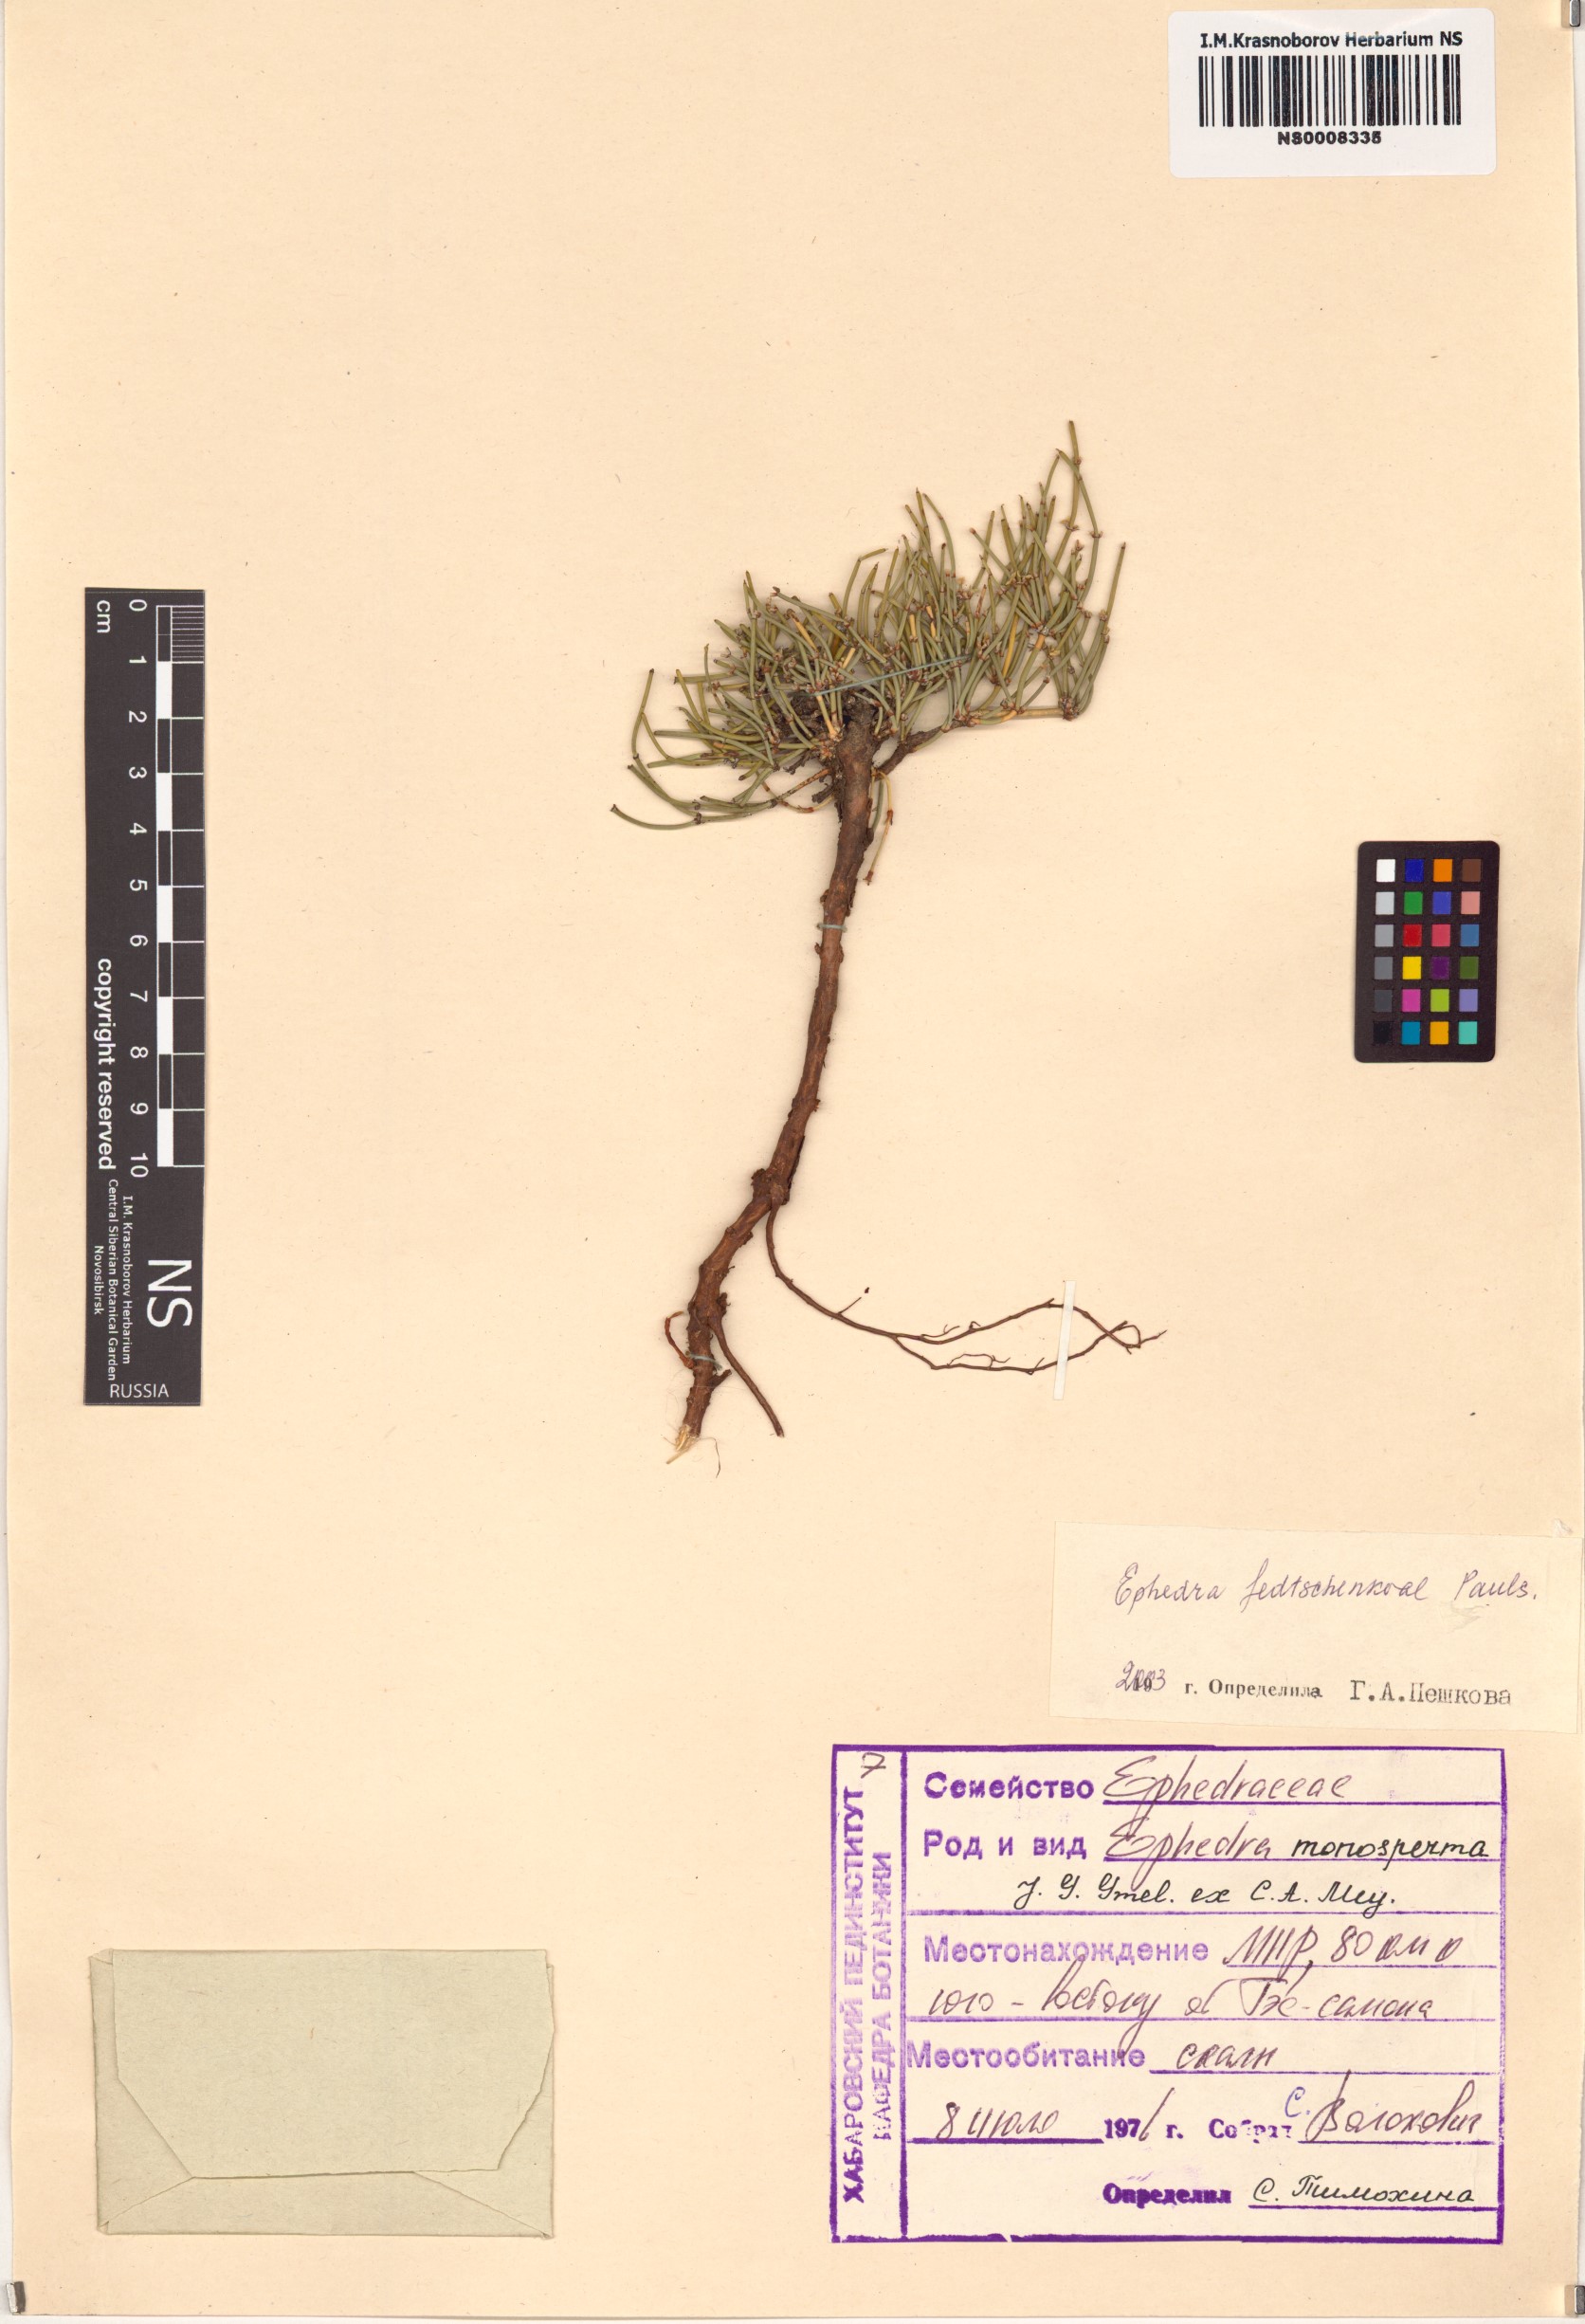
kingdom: Plantae
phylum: Tracheophyta
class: Gnetopsida
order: Ephedrales
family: Ephedraceae
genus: Ephedra
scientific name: Ephedra fedtschenkoae
